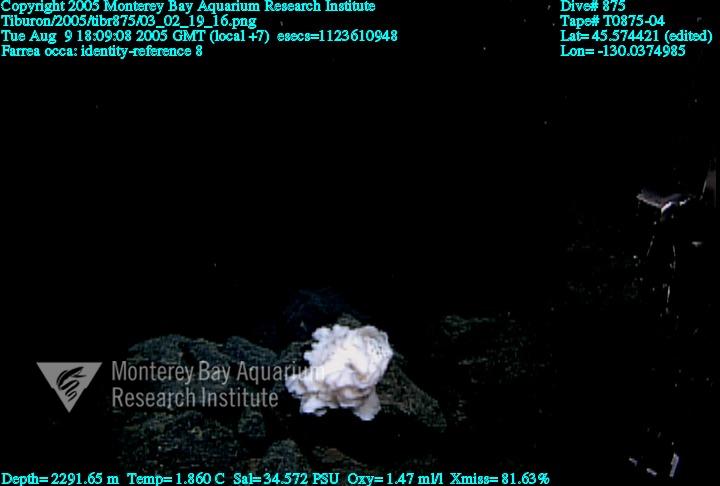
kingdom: Animalia
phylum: Porifera
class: Hexactinellida
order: Sceptrulophora
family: Farreidae
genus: Farrea
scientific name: Farrea occa
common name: Reversed glass sponge
